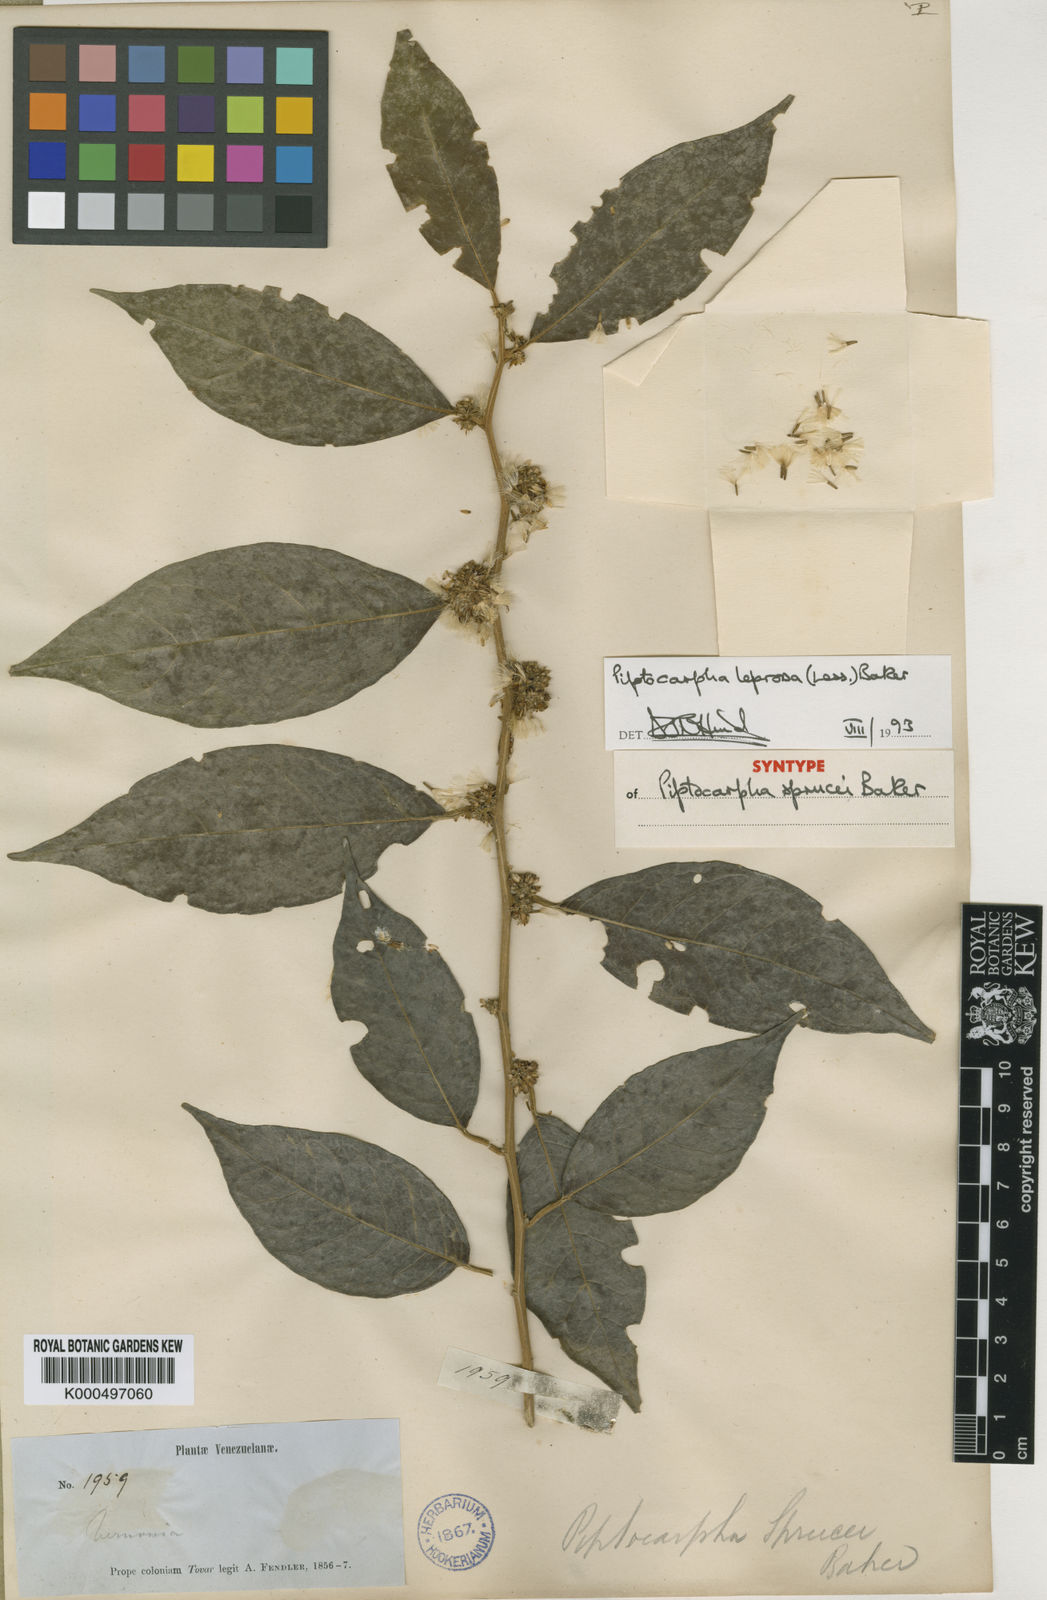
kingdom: Plantae
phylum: Tracheophyta
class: Magnoliopsida
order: Asterales
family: Asteraceae
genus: Piptocarpha
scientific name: Piptocarpha leprosa
